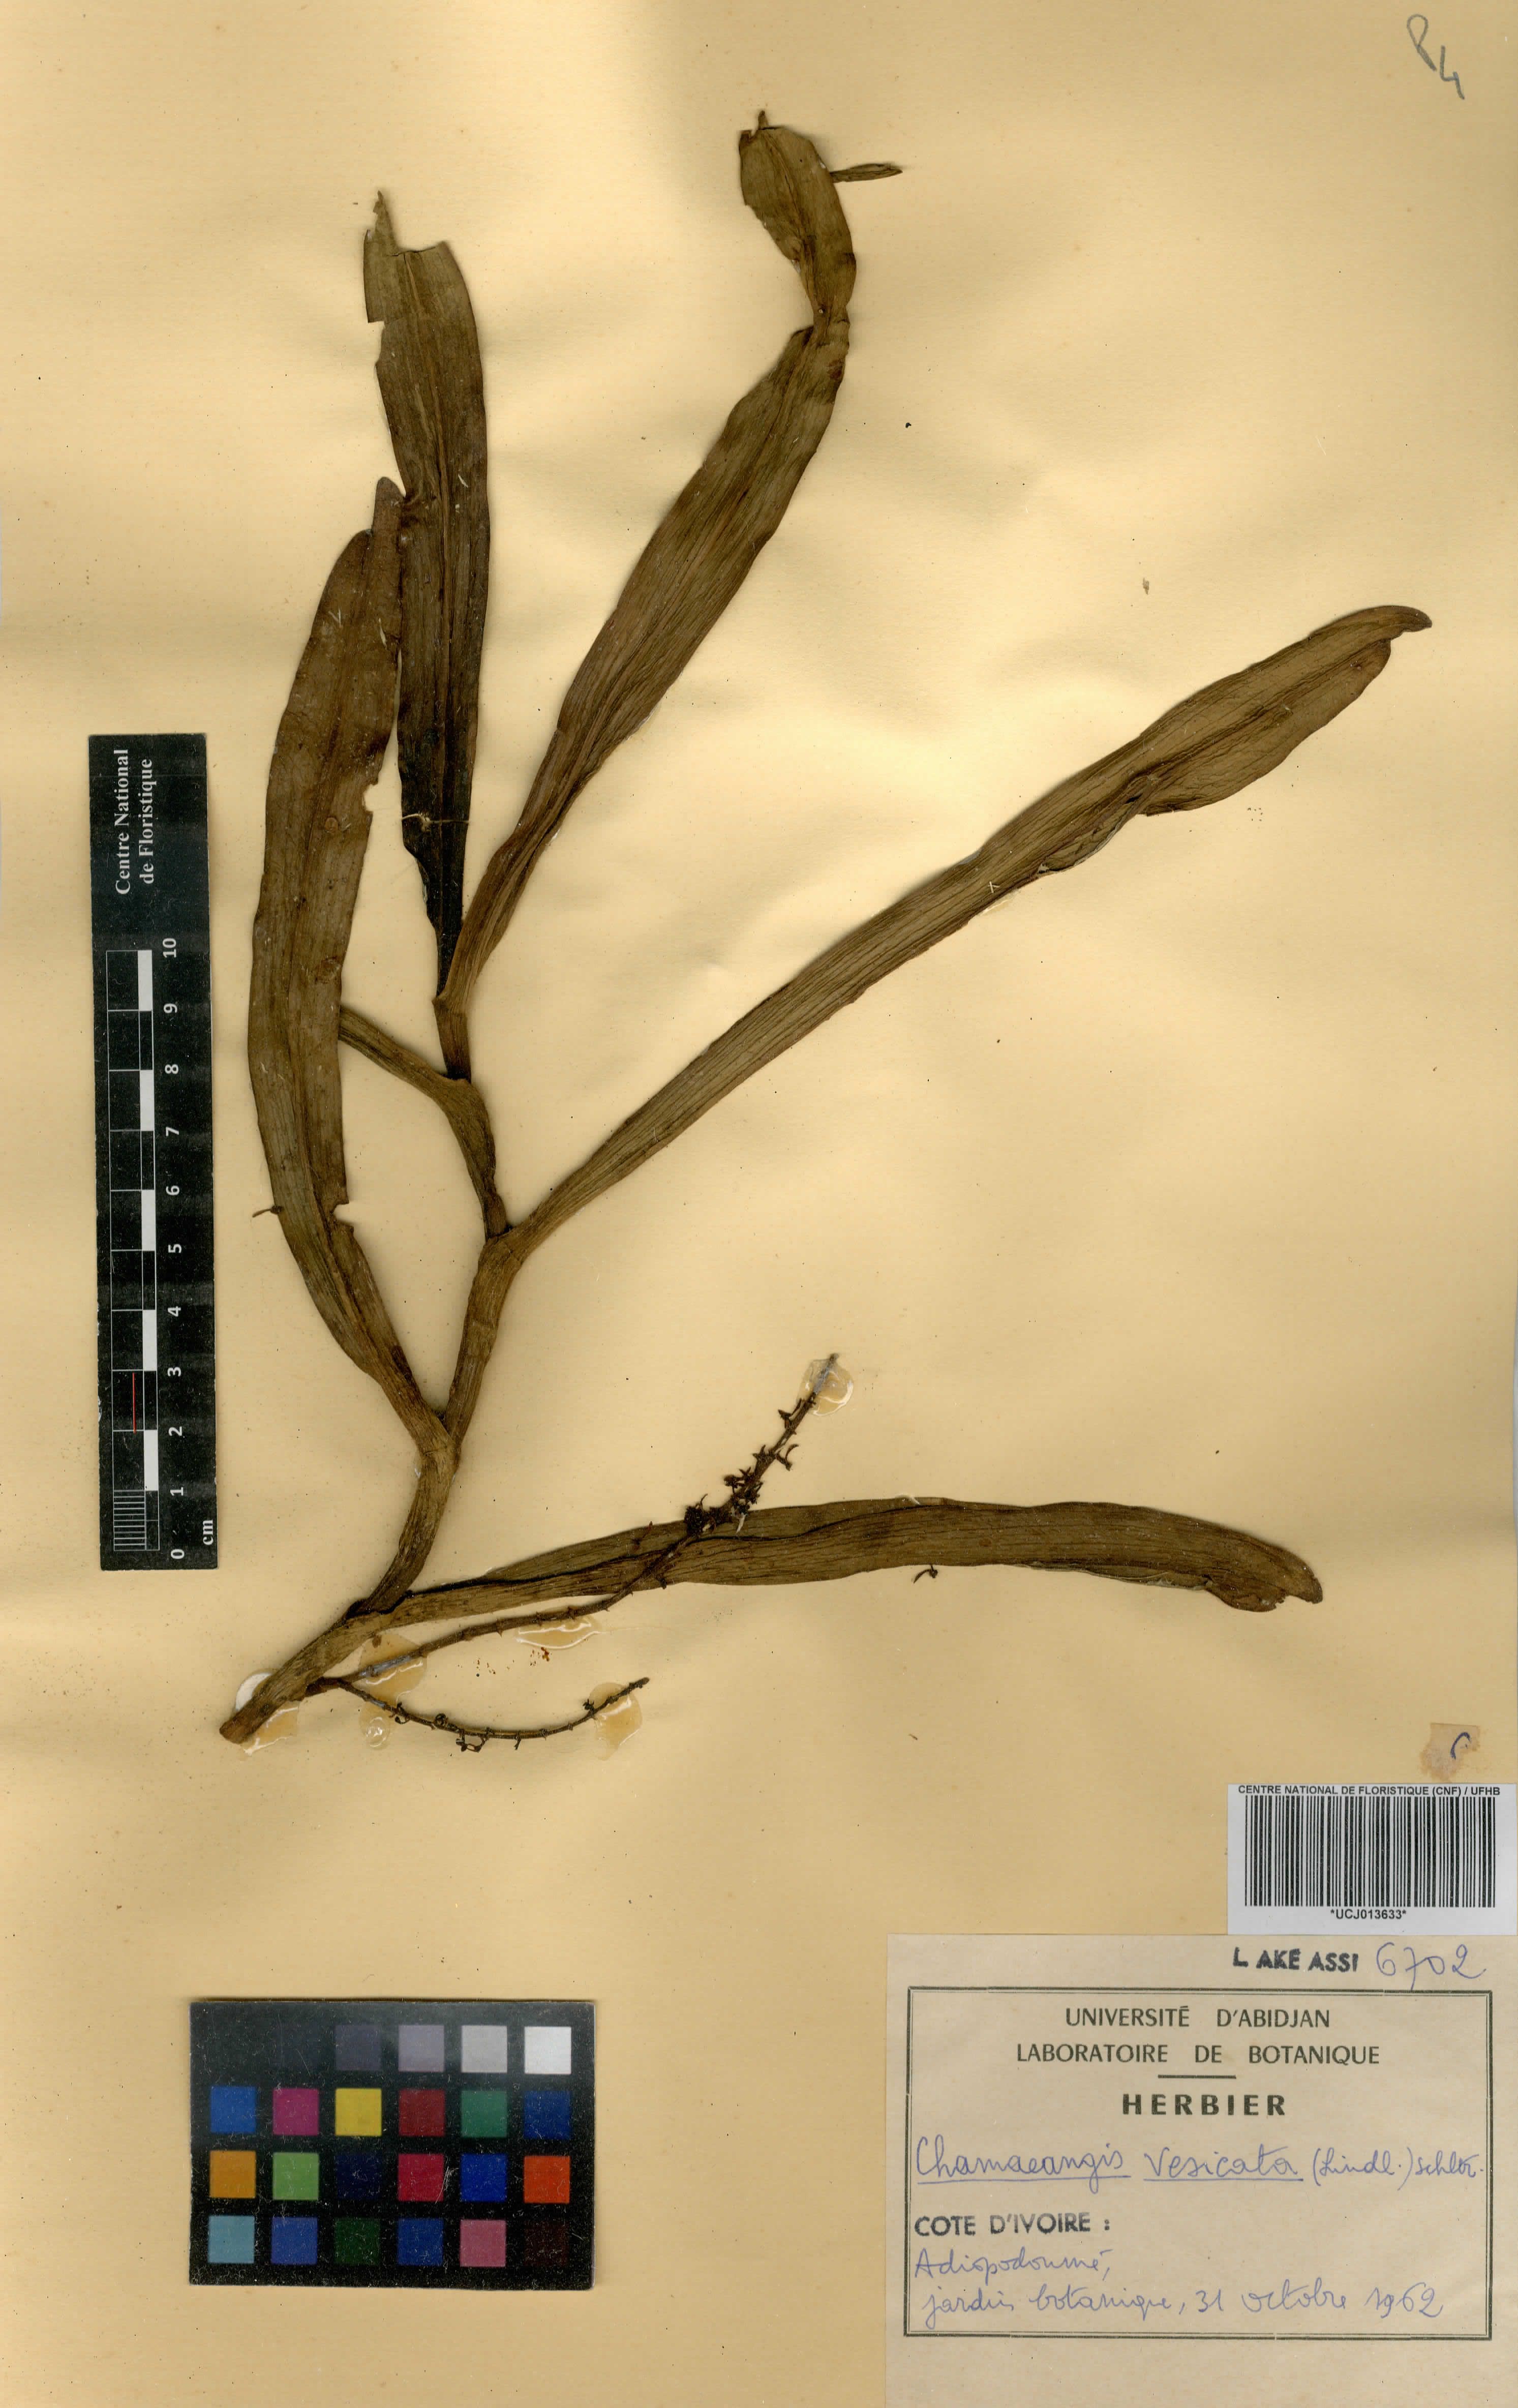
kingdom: Plantae
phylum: Tracheophyta
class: Liliopsida
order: Asparagales
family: Orchidaceae
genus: Diaphananthe
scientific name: Diaphananthe vesicata
